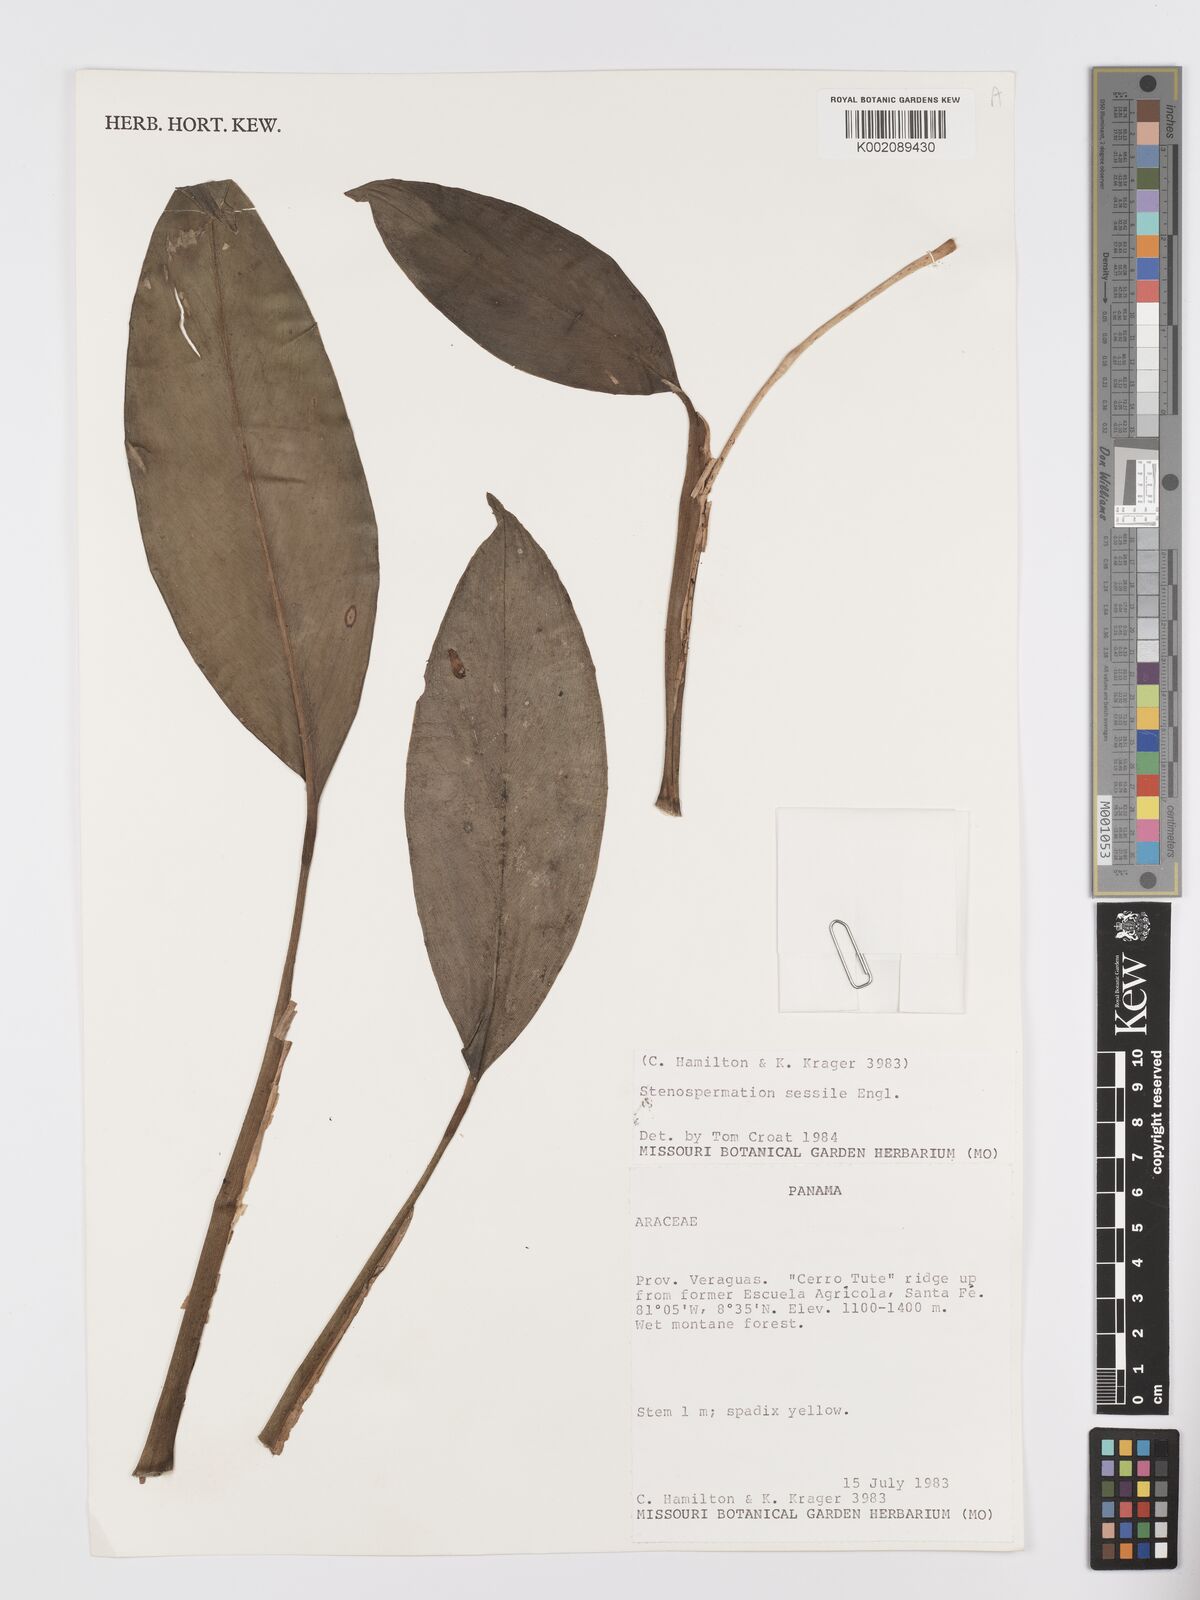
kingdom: Plantae
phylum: Tracheophyta
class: Liliopsida
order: Alismatales
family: Araceae
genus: Stenospermation
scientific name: Stenospermation sessile
